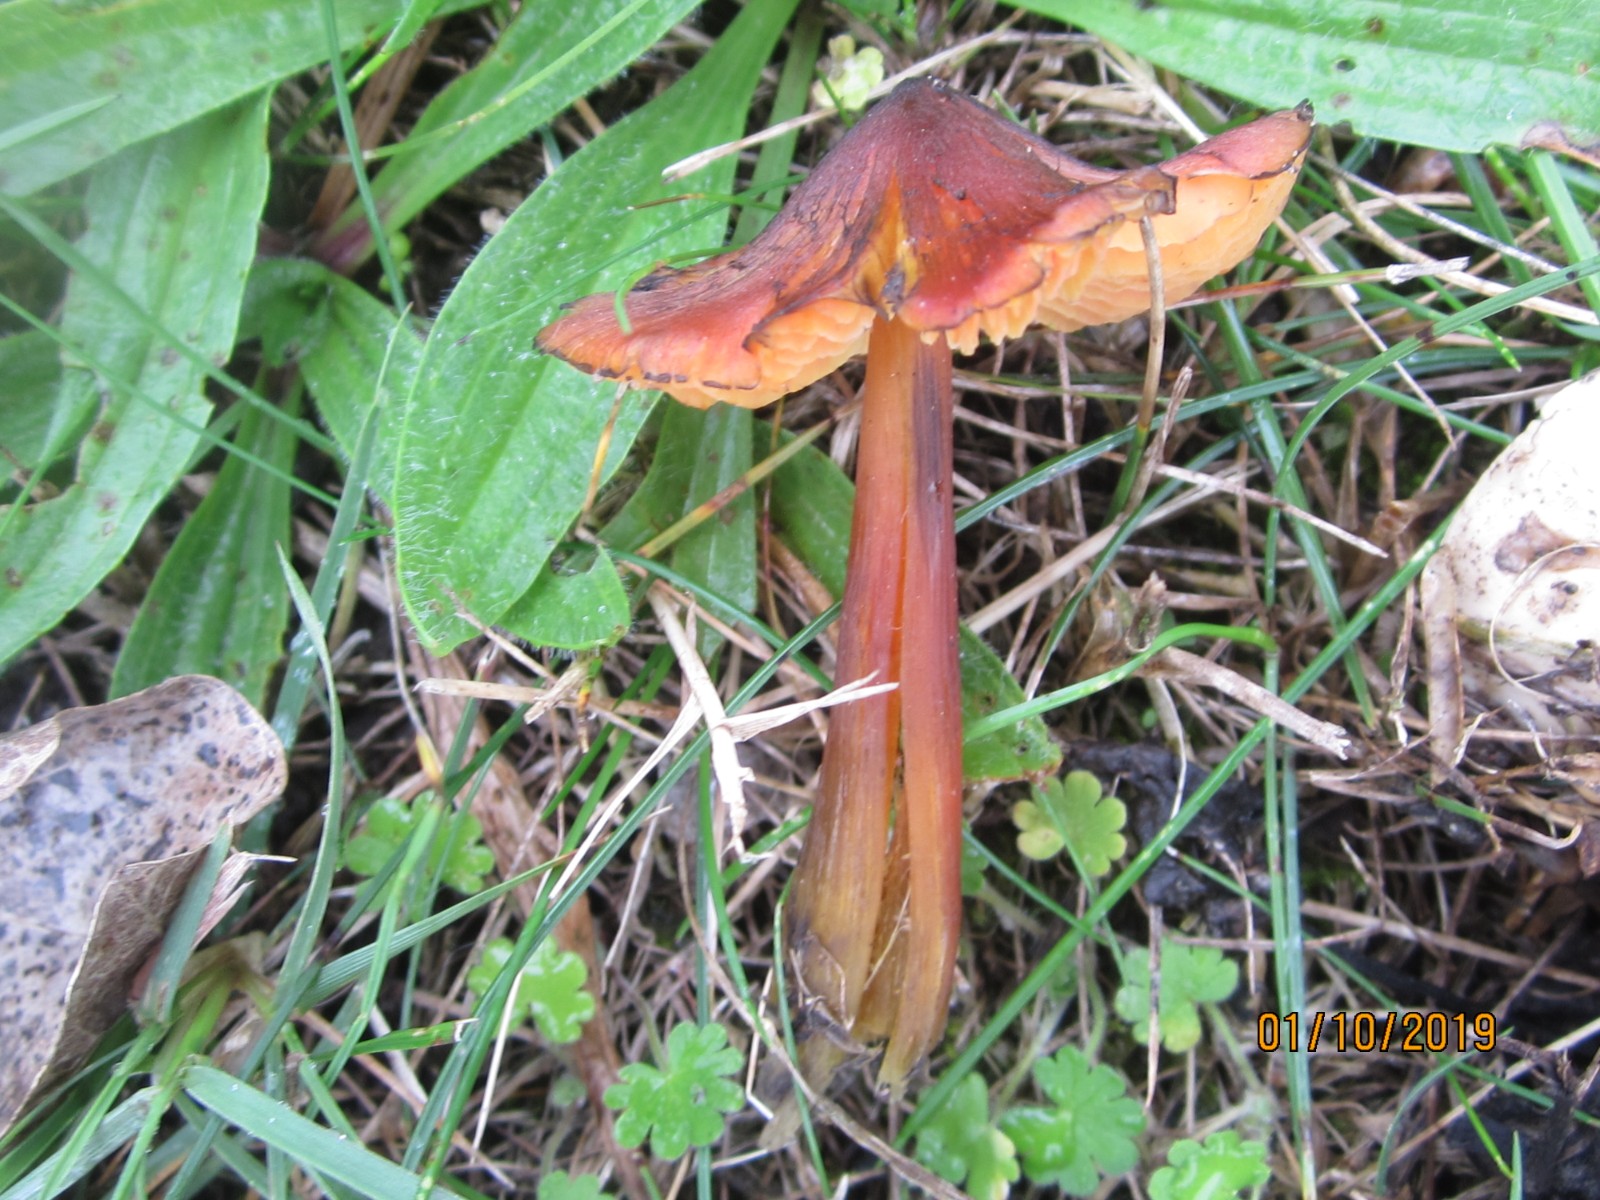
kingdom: Fungi
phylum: Basidiomycota
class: Agaricomycetes
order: Agaricales
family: Hygrophoraceae
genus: Hygrocybe
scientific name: Hygrocybe conica
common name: kegle-vokshat
